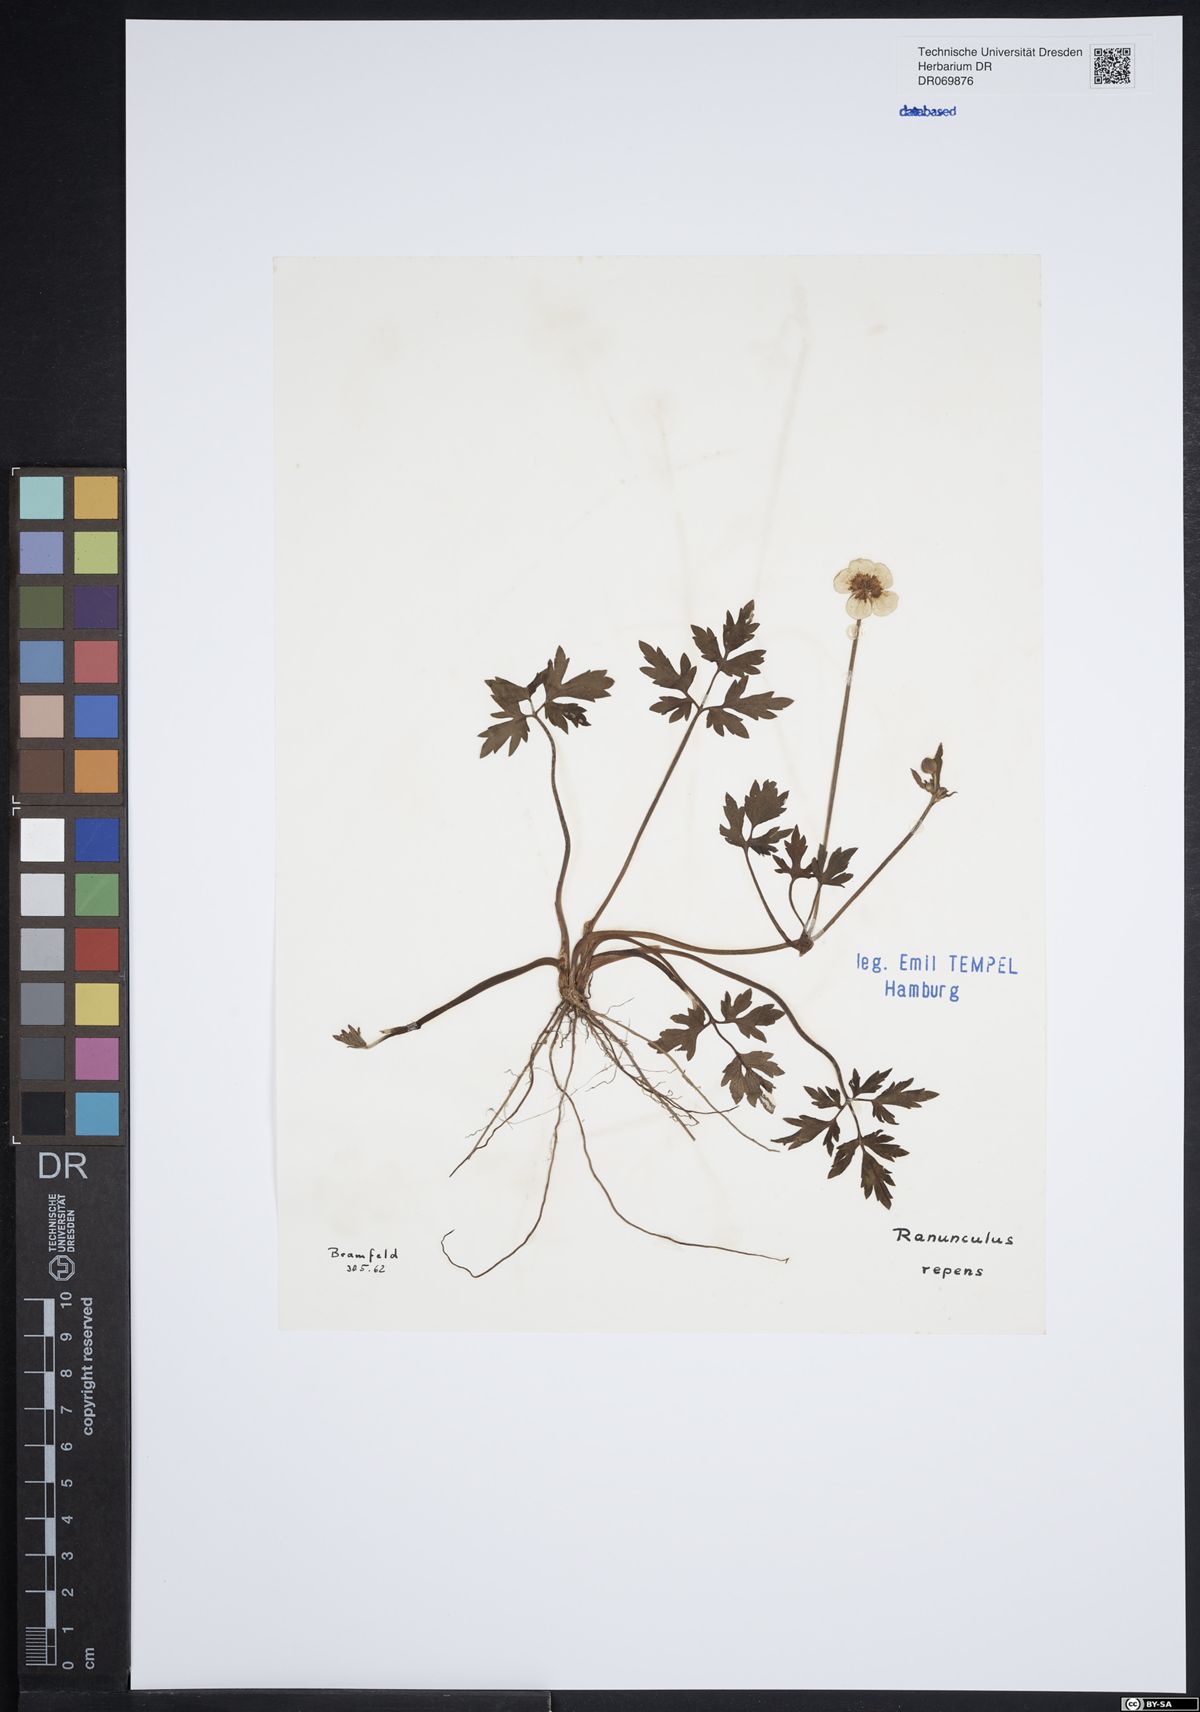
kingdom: Plantae
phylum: Tracheophyta
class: Magnoliopsida
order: Ranunculales
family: Ranunculaceae
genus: Ranunculus
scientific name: Ranunculus repens
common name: Creeping buttercup
